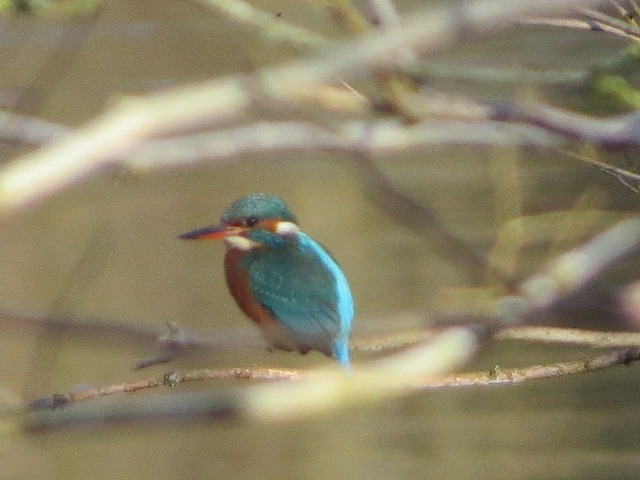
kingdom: Animalia
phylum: Chordata
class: Aves
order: Coraciiformes
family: Alcedinidae
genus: Alcedo
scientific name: Alcedo atthis
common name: Isfugl
